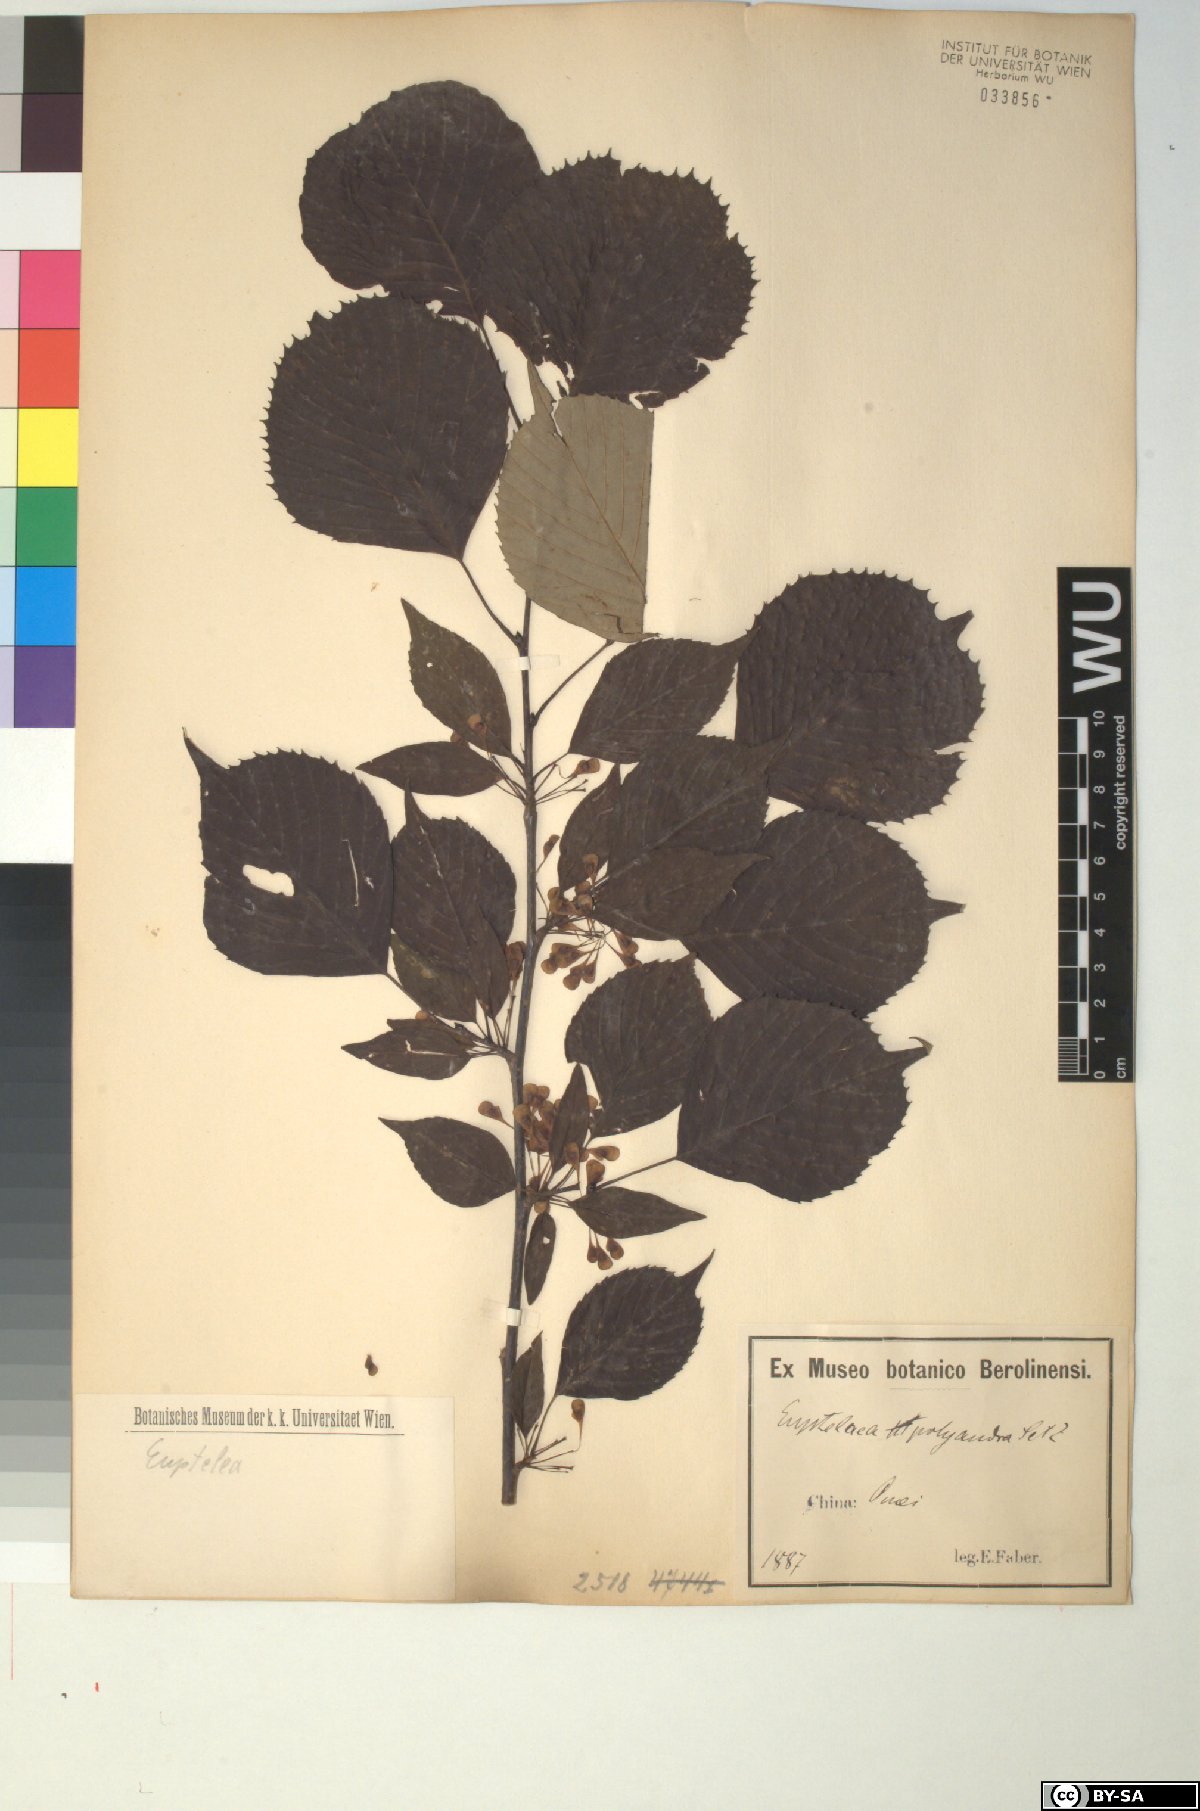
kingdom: Plantae
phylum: Tracheophyta
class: Magnoliopsida
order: Ranunculales
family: Eupteleaceae
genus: Euptelea
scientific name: Euptelea pleiosperma
